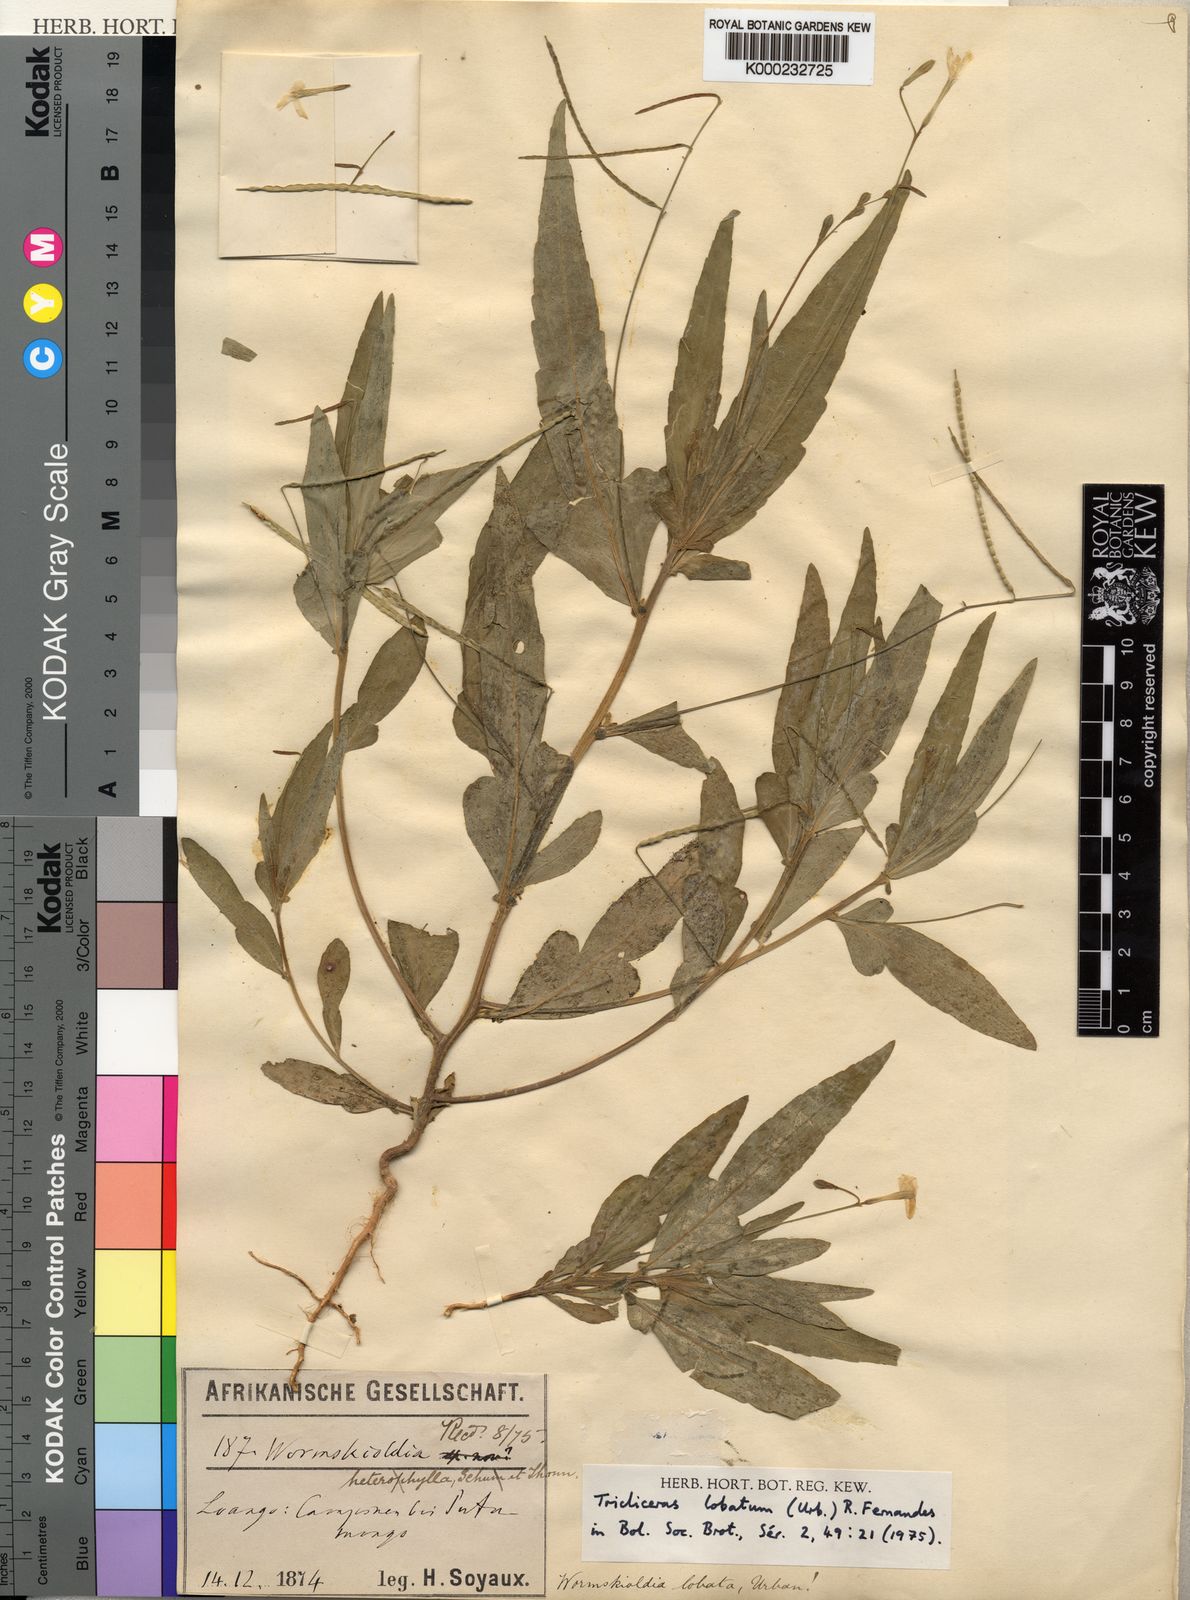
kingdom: Plantae
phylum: Tracheophyta
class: Magnoliopsida
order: Malpighiales
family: Turneraceae
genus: Tricliceras
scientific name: Tricliceras lobatum
